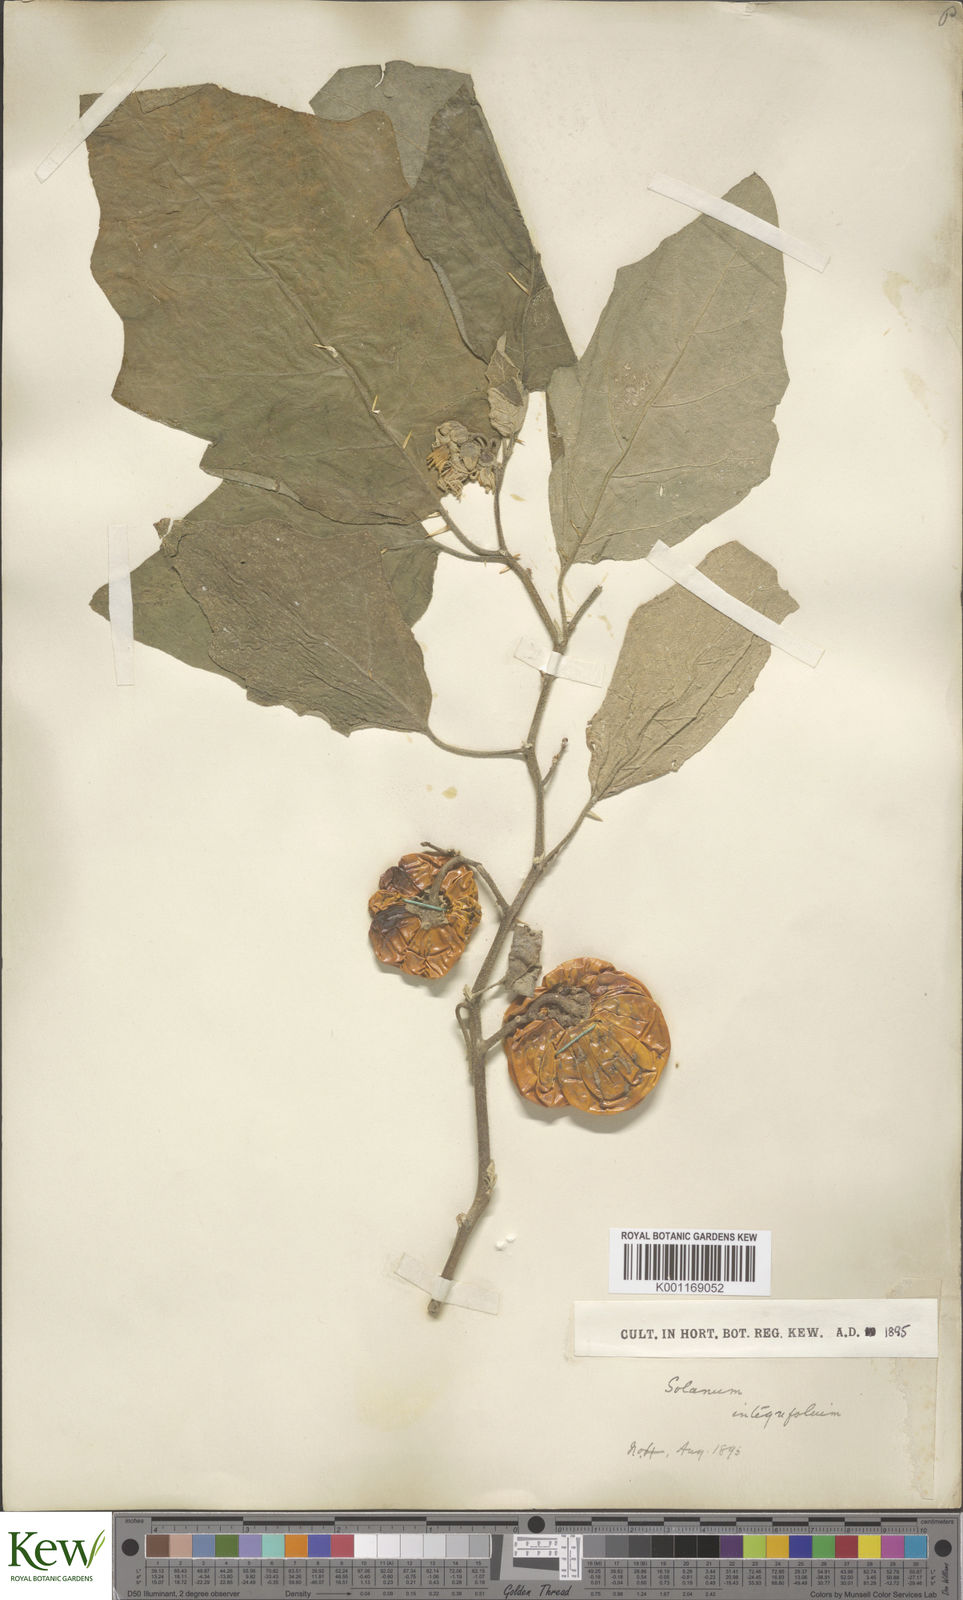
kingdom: Plantae
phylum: Tracheophyta
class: Magnoliopsida
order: Solanales
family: Solanaceae
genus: Solanum
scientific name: Solanum aethiopicum
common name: Gilo
